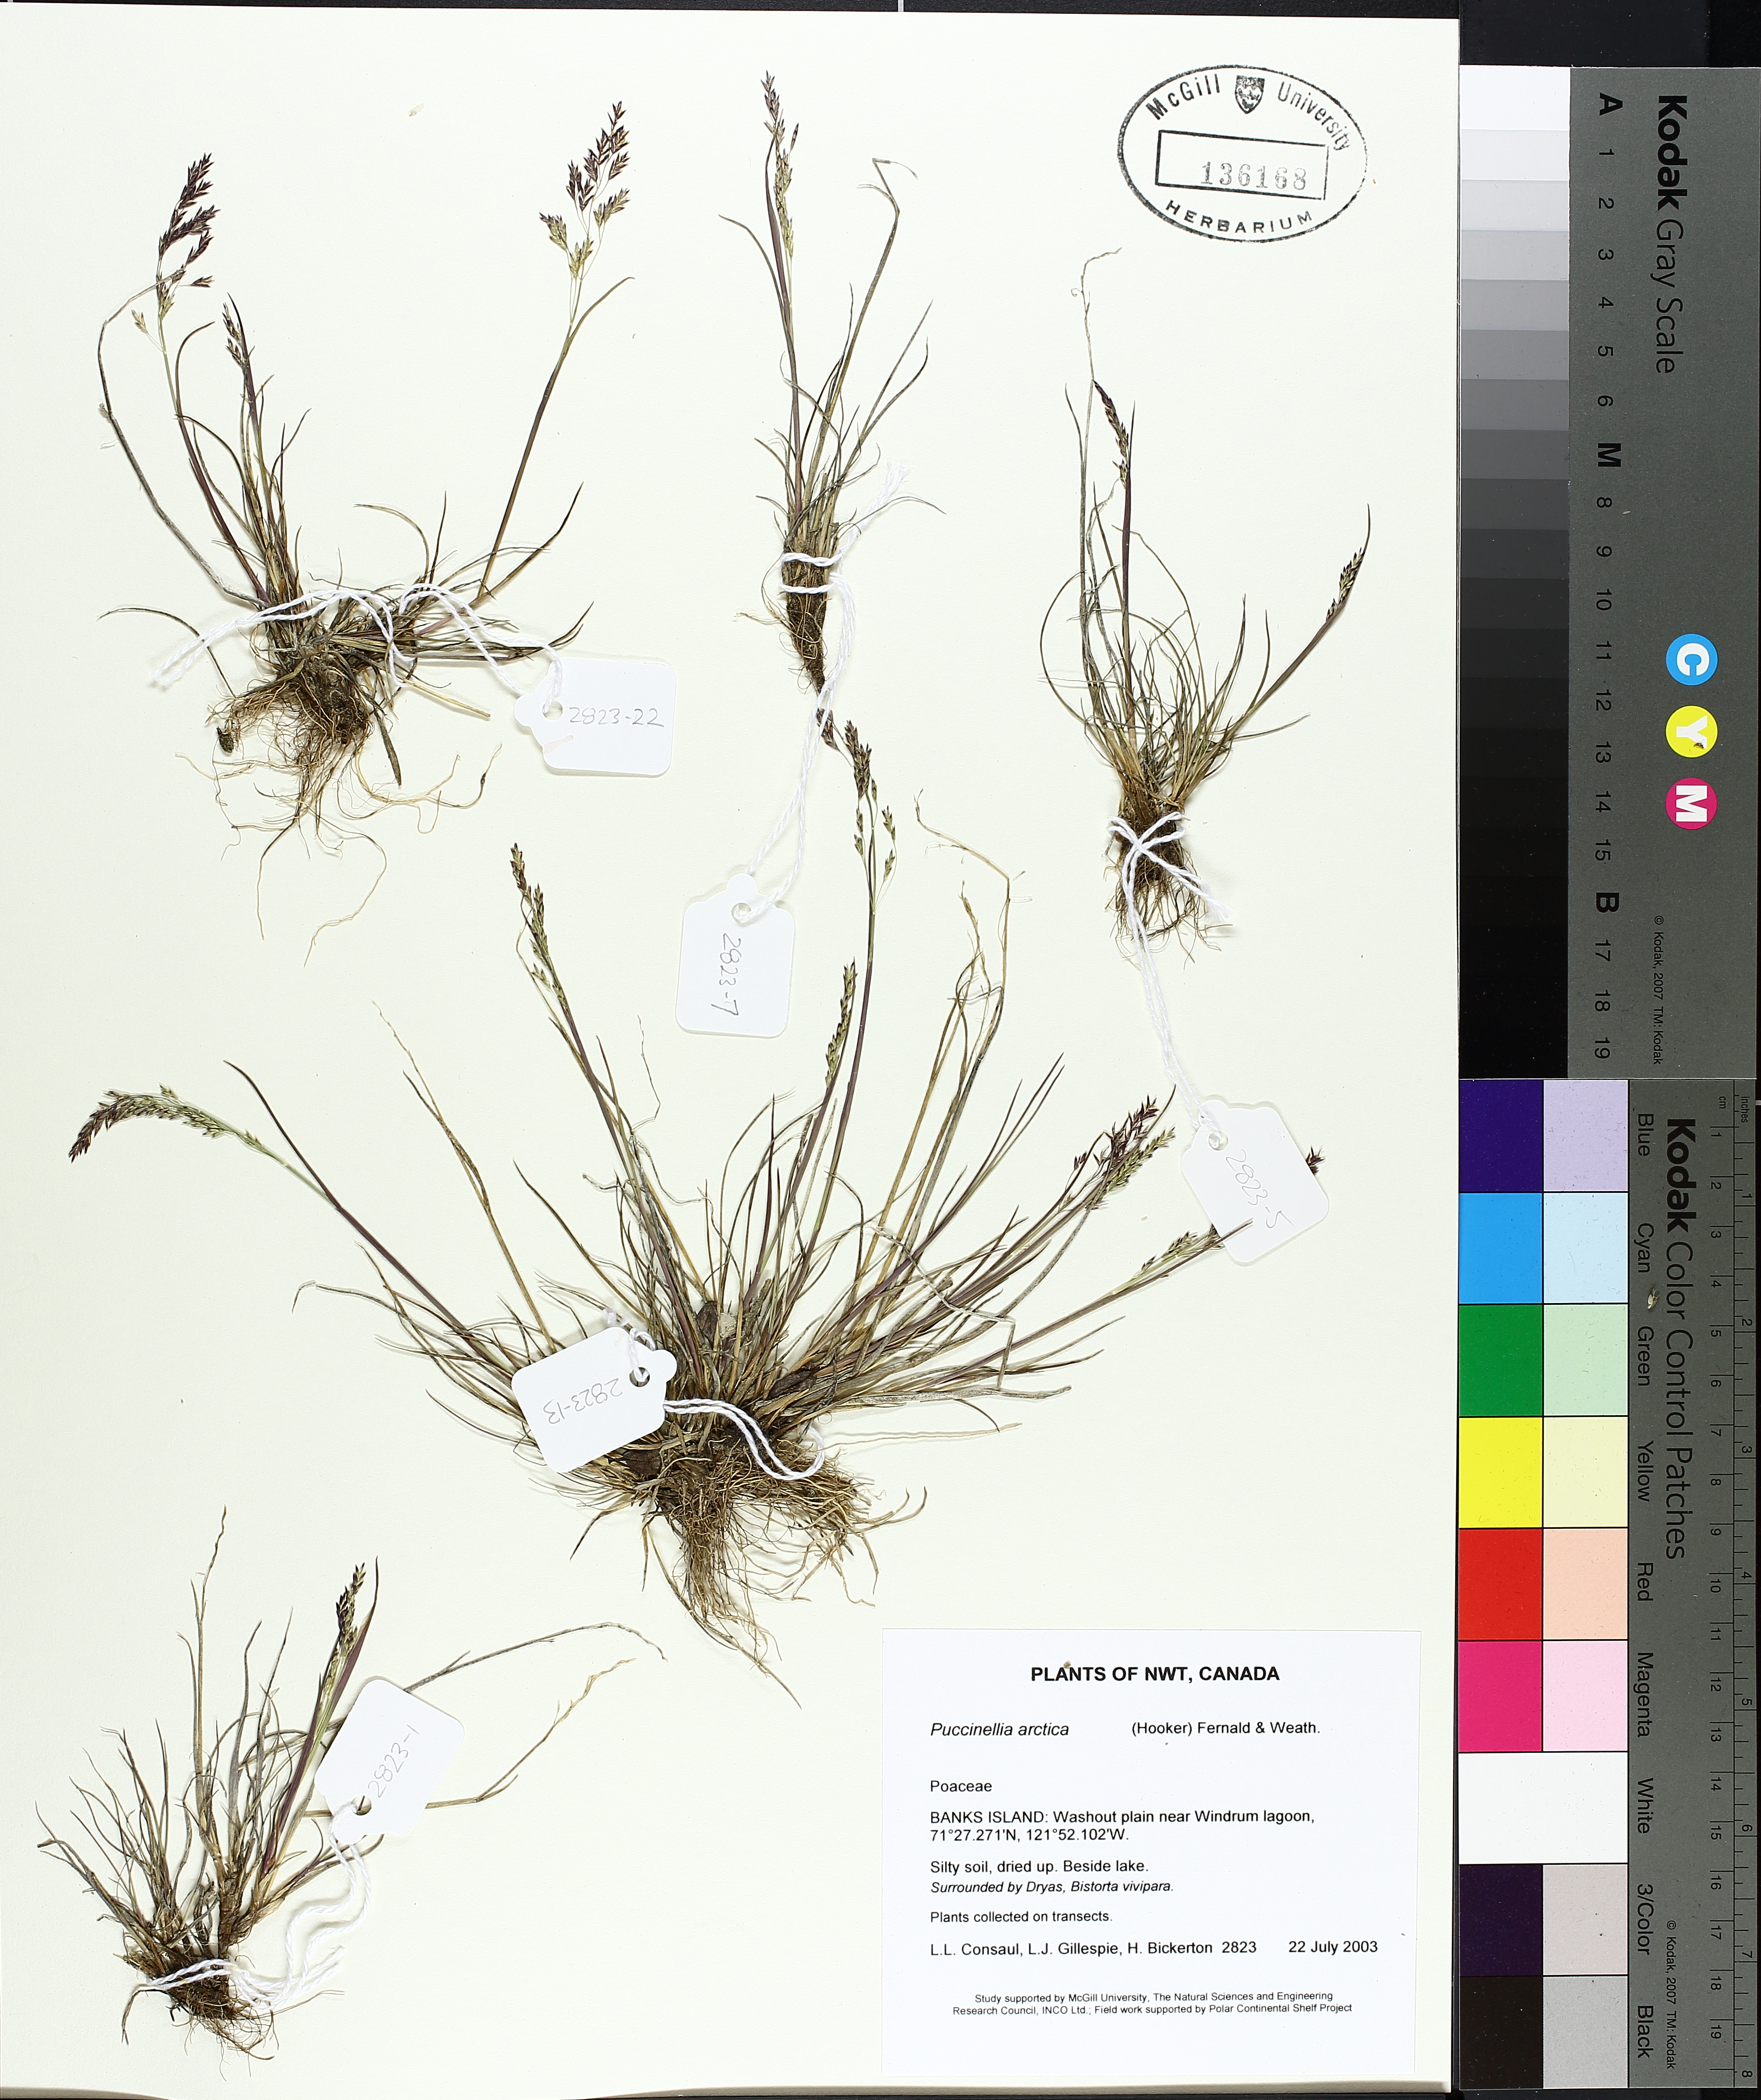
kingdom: Plantae
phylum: Tracheophyta
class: Liliopsida
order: Poales
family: Poaceae
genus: Puccinellia
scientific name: Puccinellia arctica
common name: Arctic alkali grass
